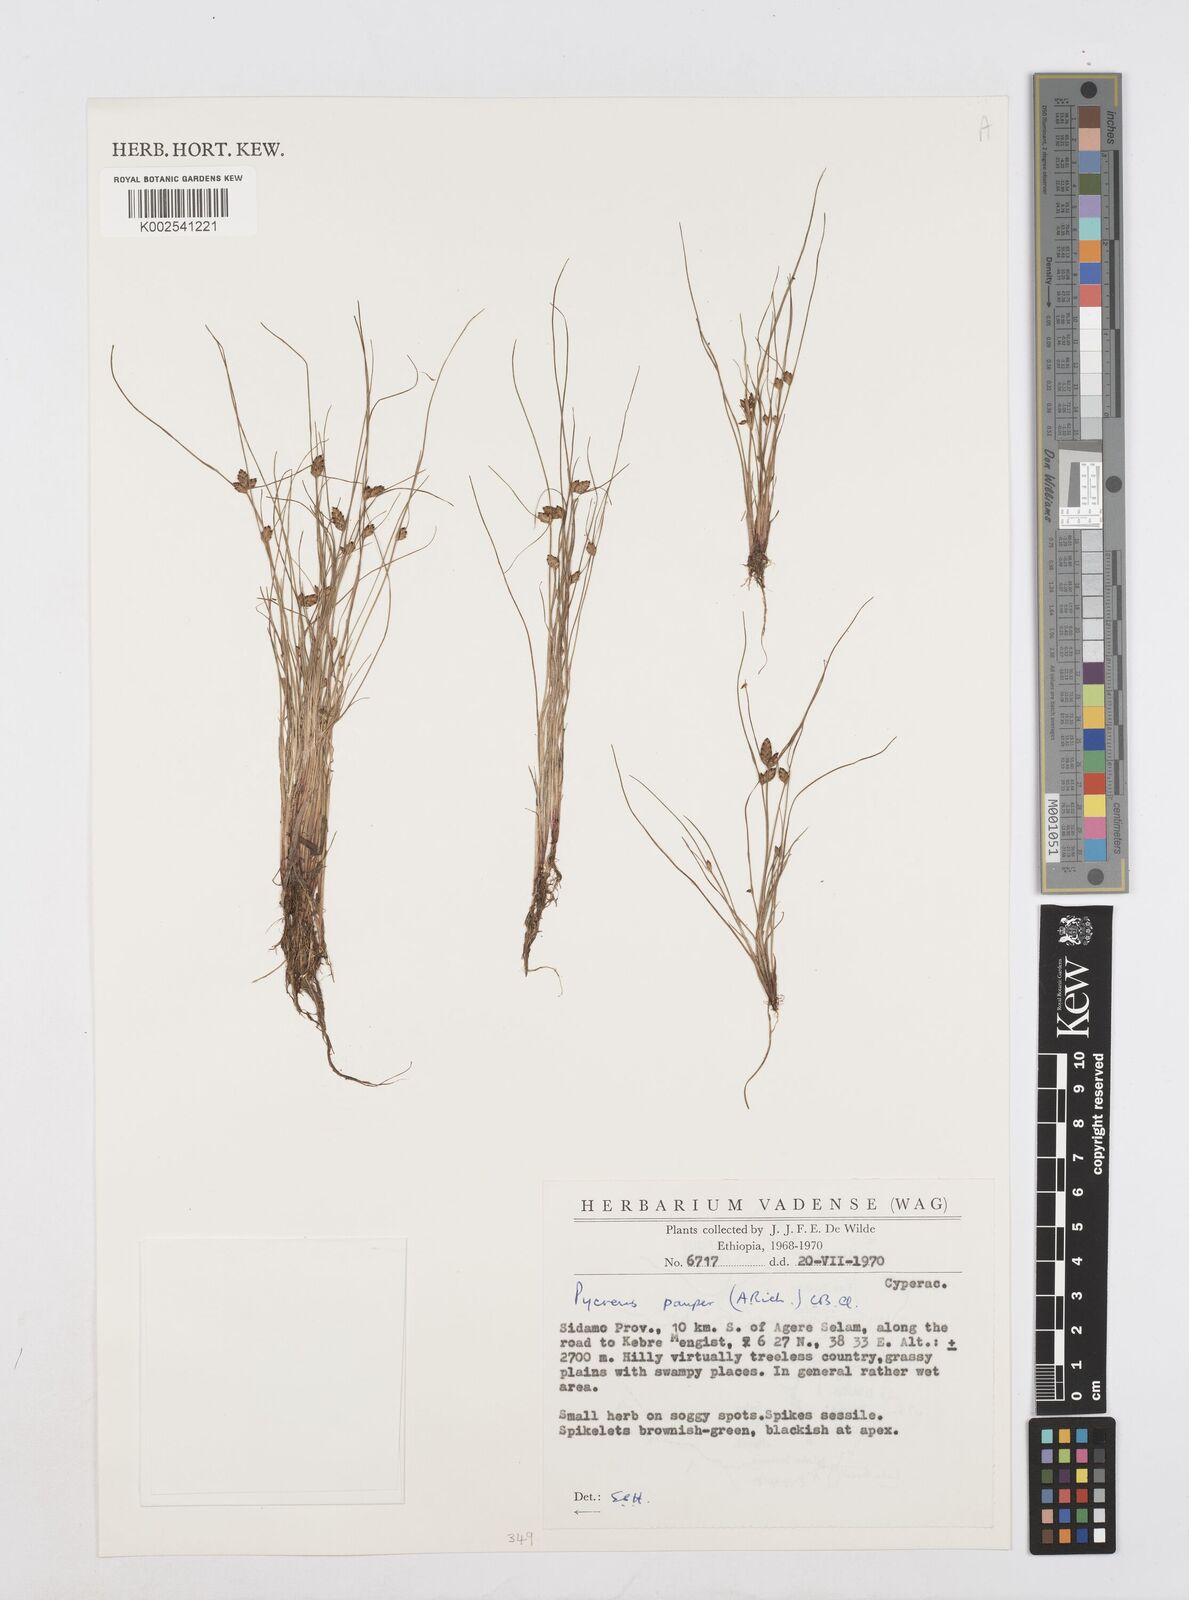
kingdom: Plantae
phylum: Tracheophyta
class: Liliopsida
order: Poales
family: Cyperaceae
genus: Cyperus
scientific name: Cyperus pauper
